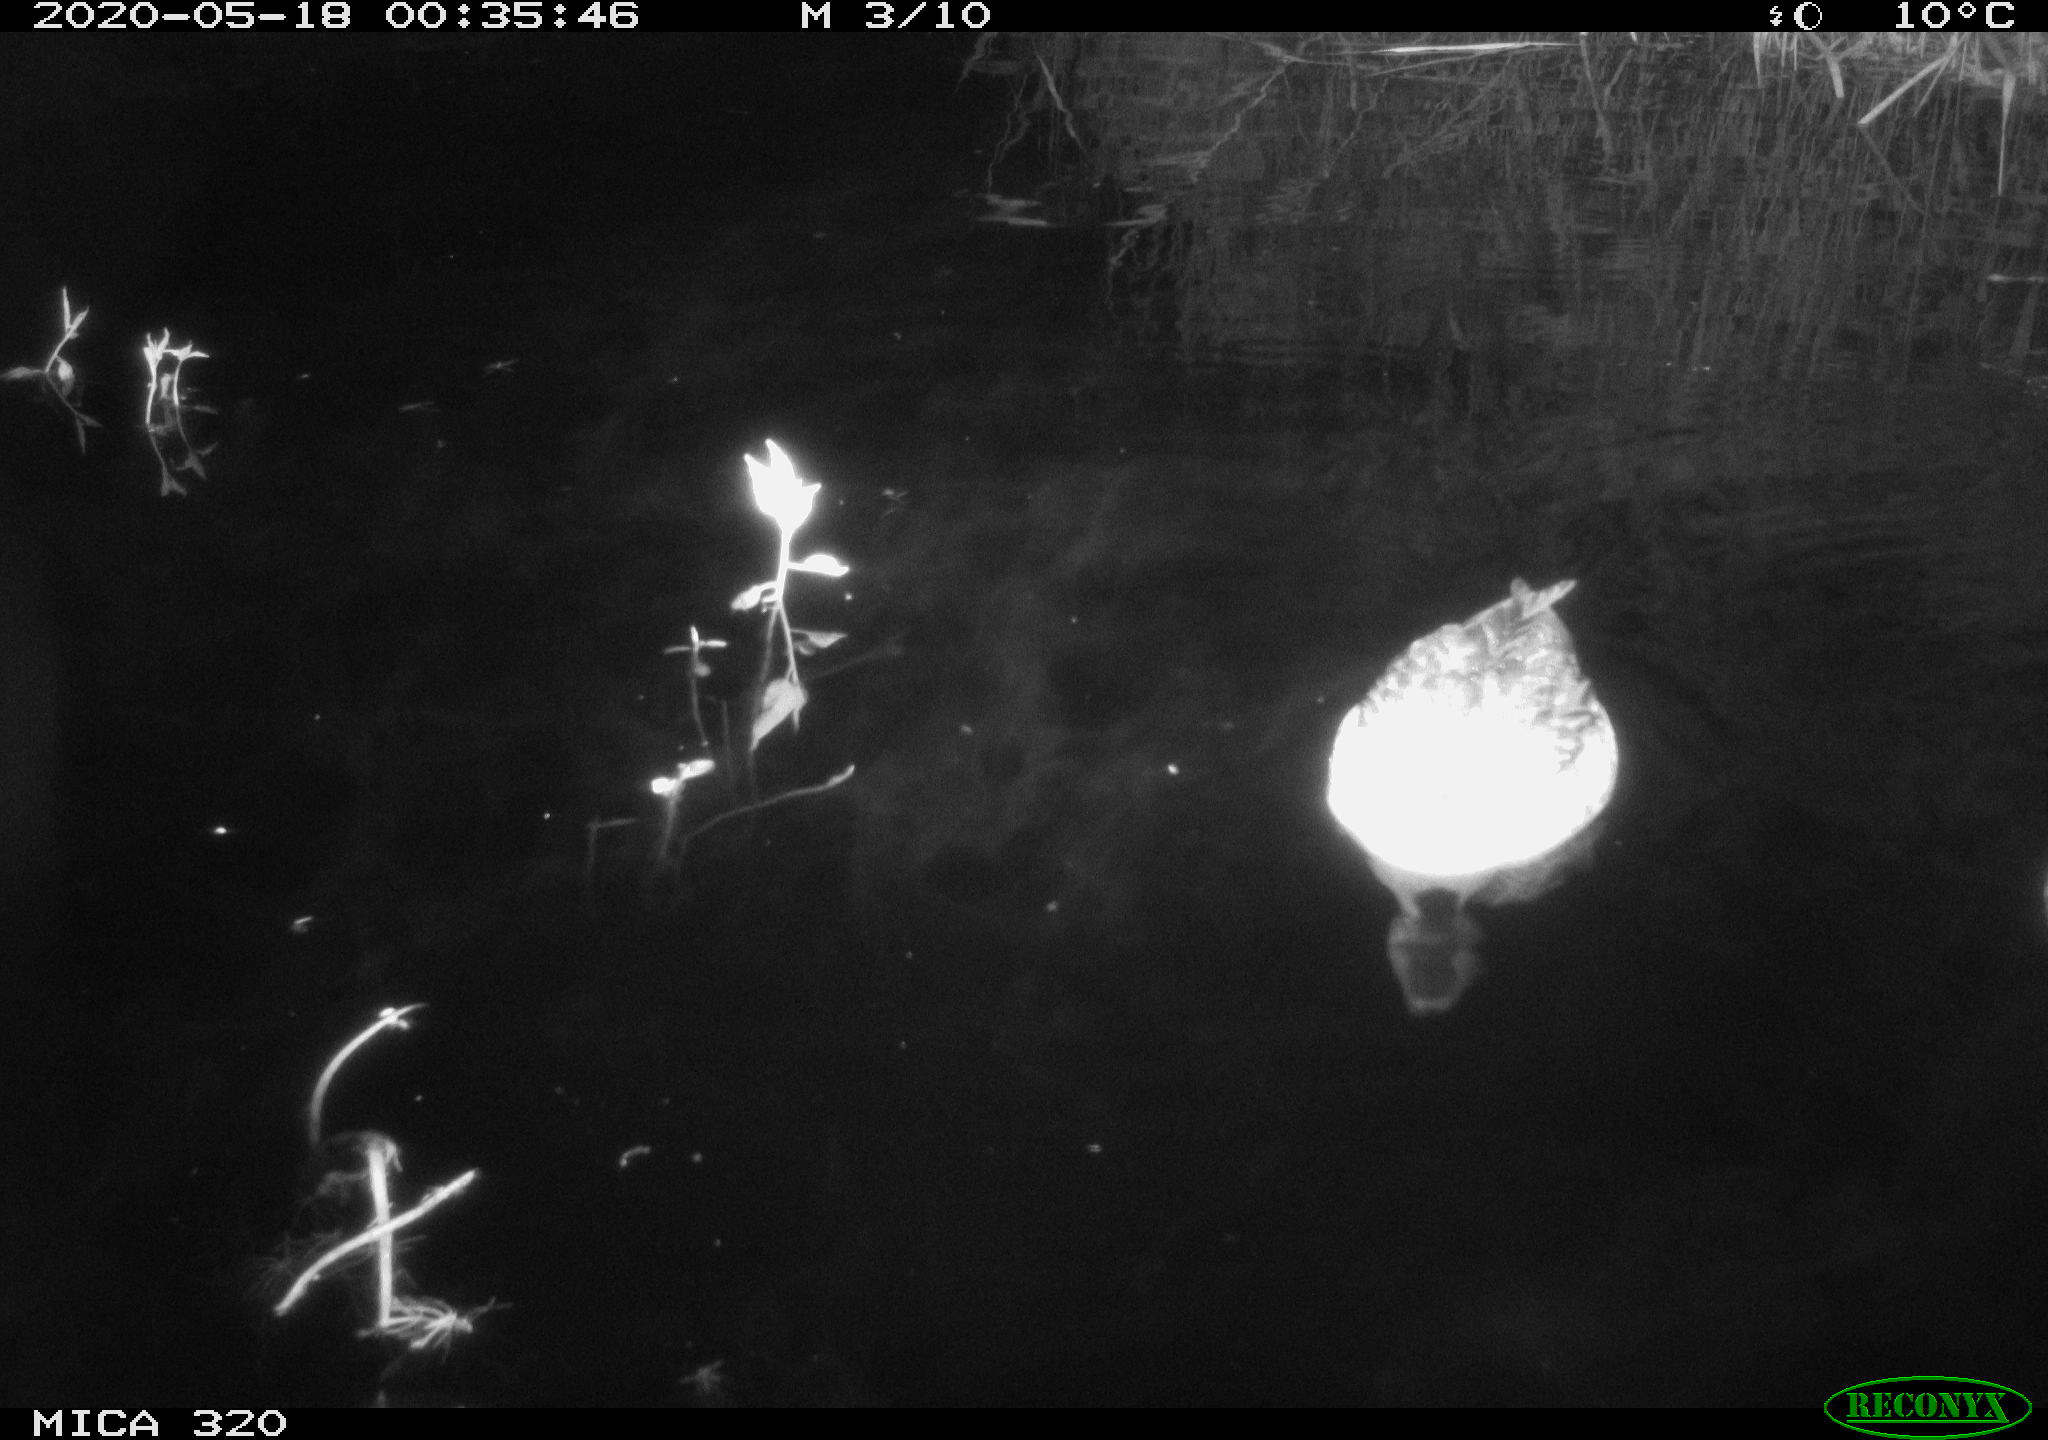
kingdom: Animalia
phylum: Chordata
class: Aves
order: Anseriformes
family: Anatidae
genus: Anas
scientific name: Anas platyrhynchos
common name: Mallard
